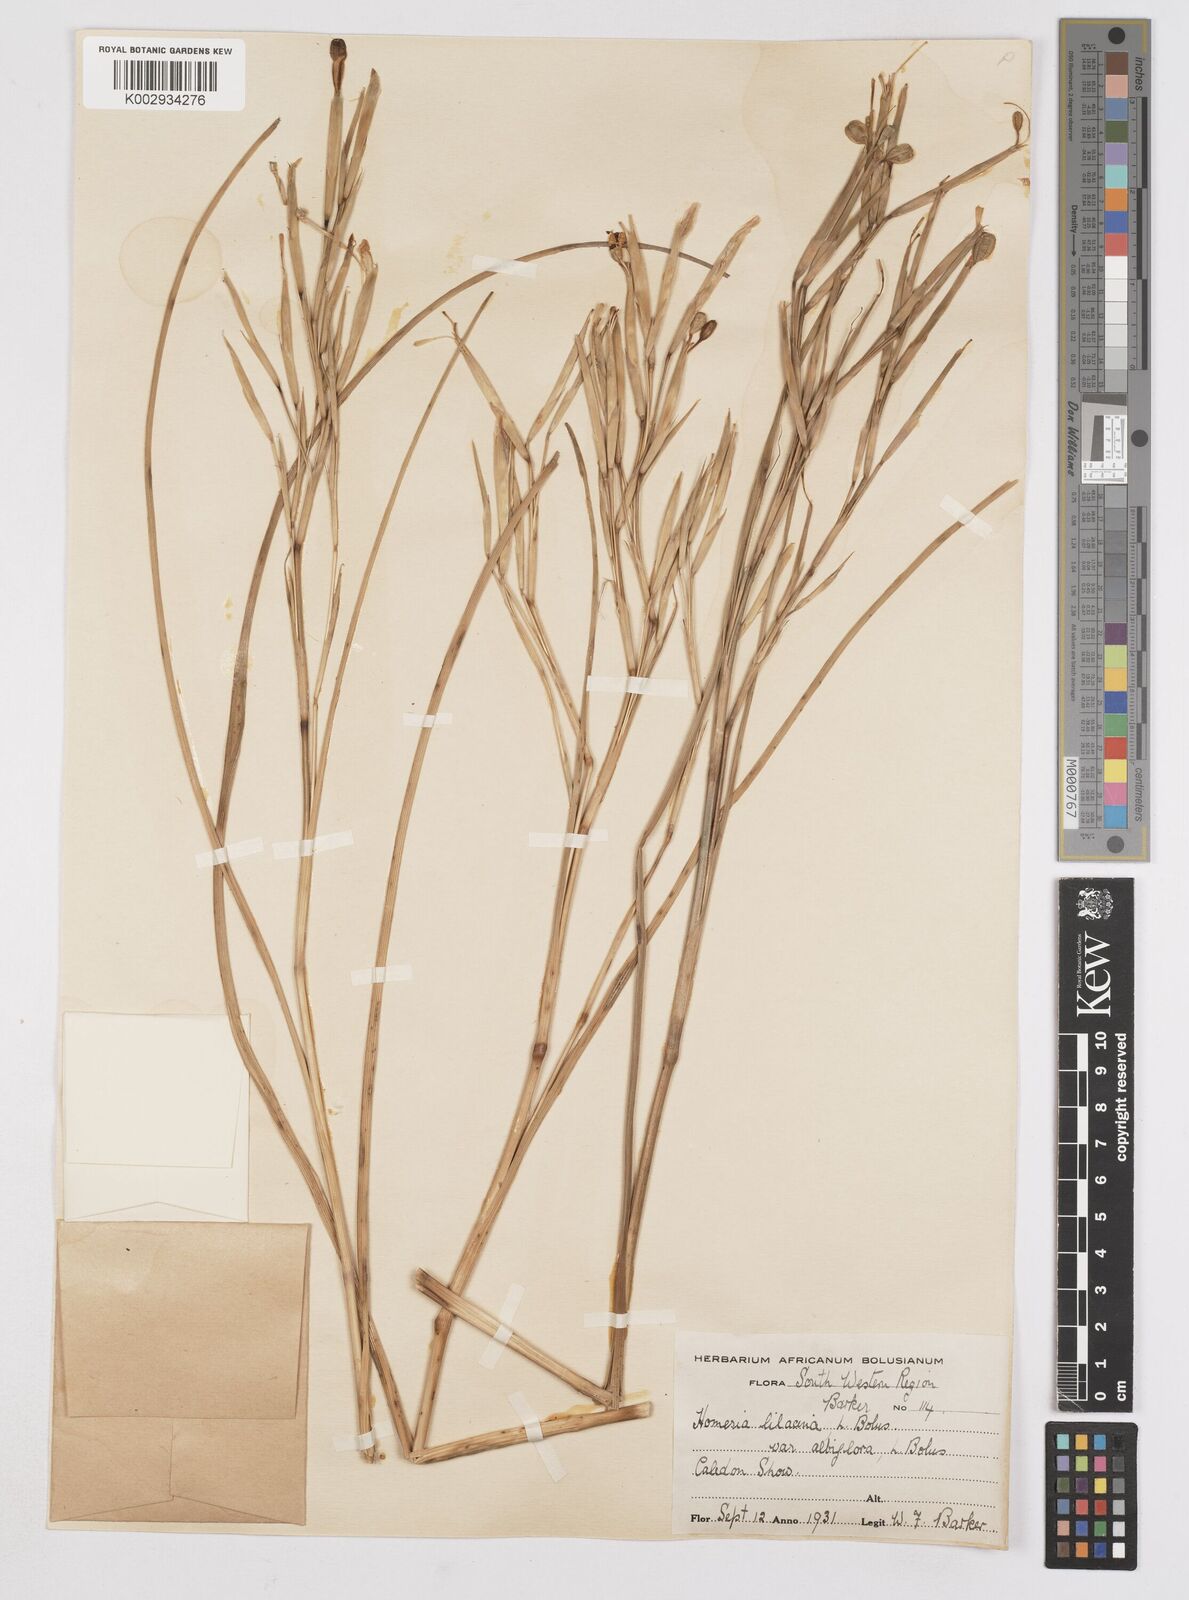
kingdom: Plantae
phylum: Tracheophyta
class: Liliopsida
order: Asparagales
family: Iridaceae
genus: Moraea
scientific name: Moraea
